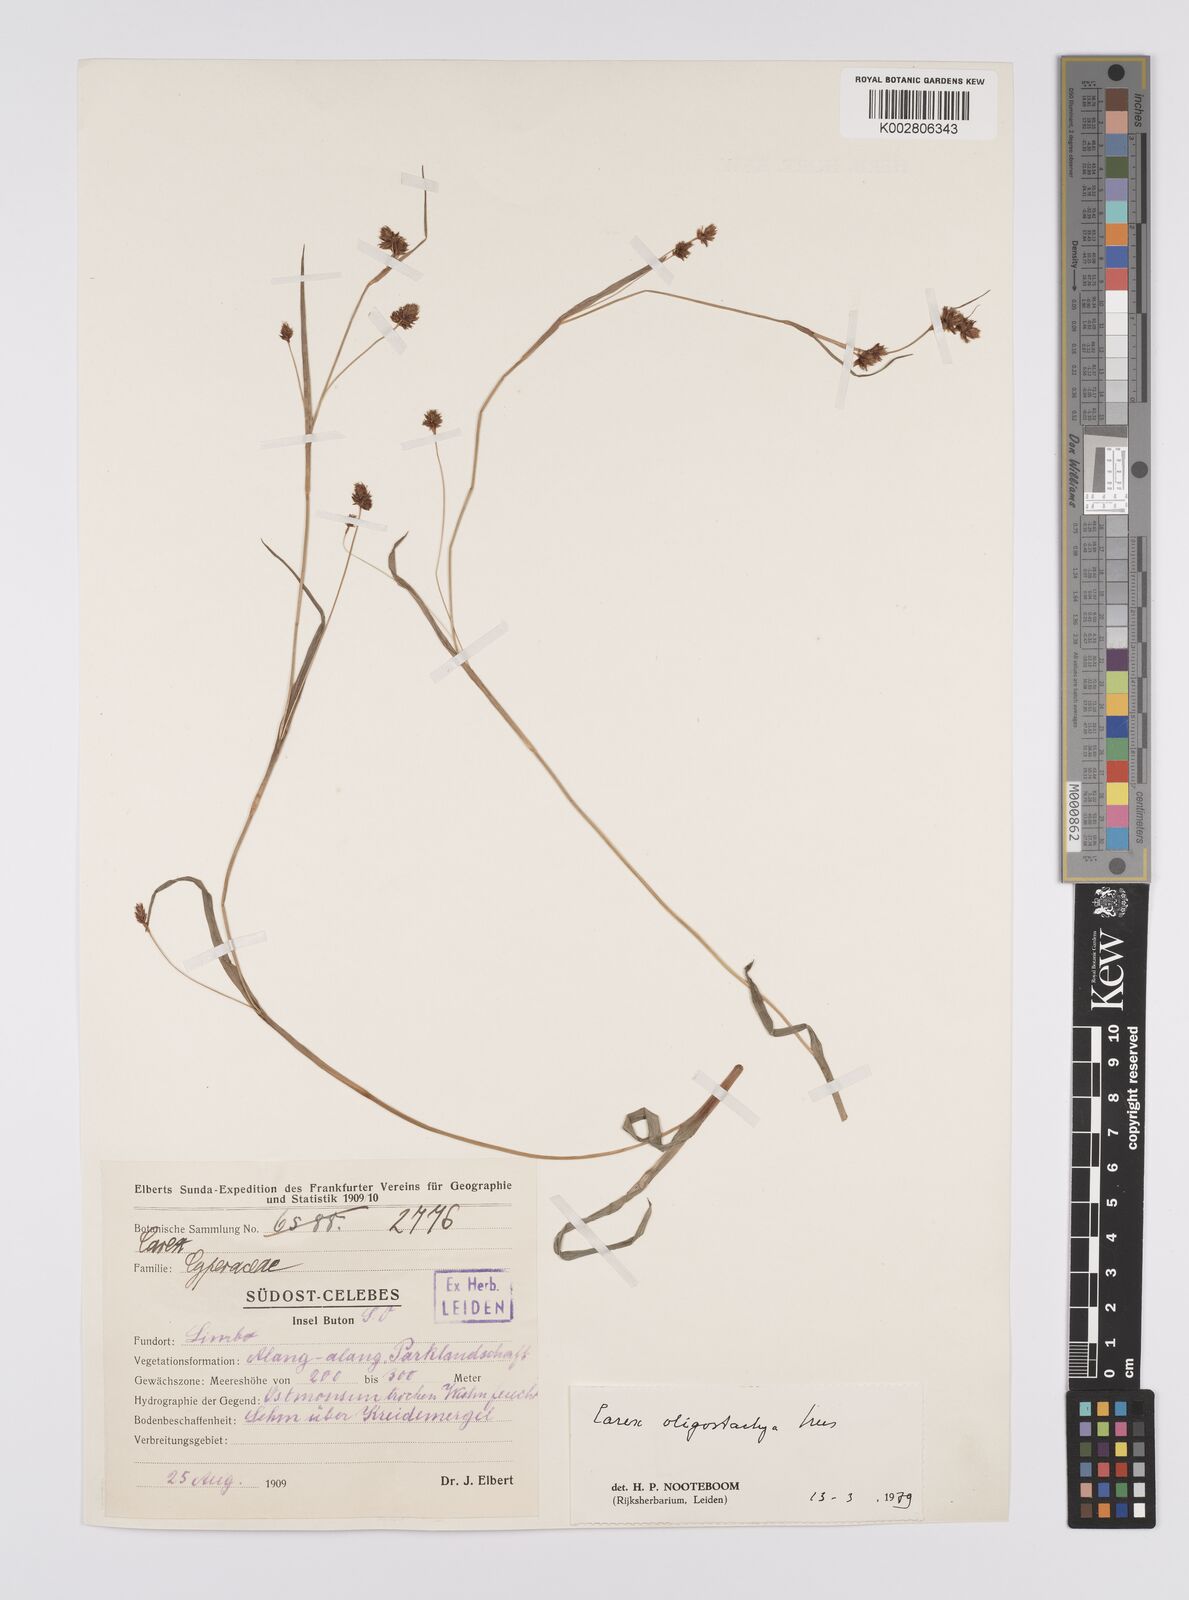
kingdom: Plantae
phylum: Tracheophyta
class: Liliopsida
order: Poales
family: Cyperaceae
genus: Carex
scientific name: Carex oligostachya
